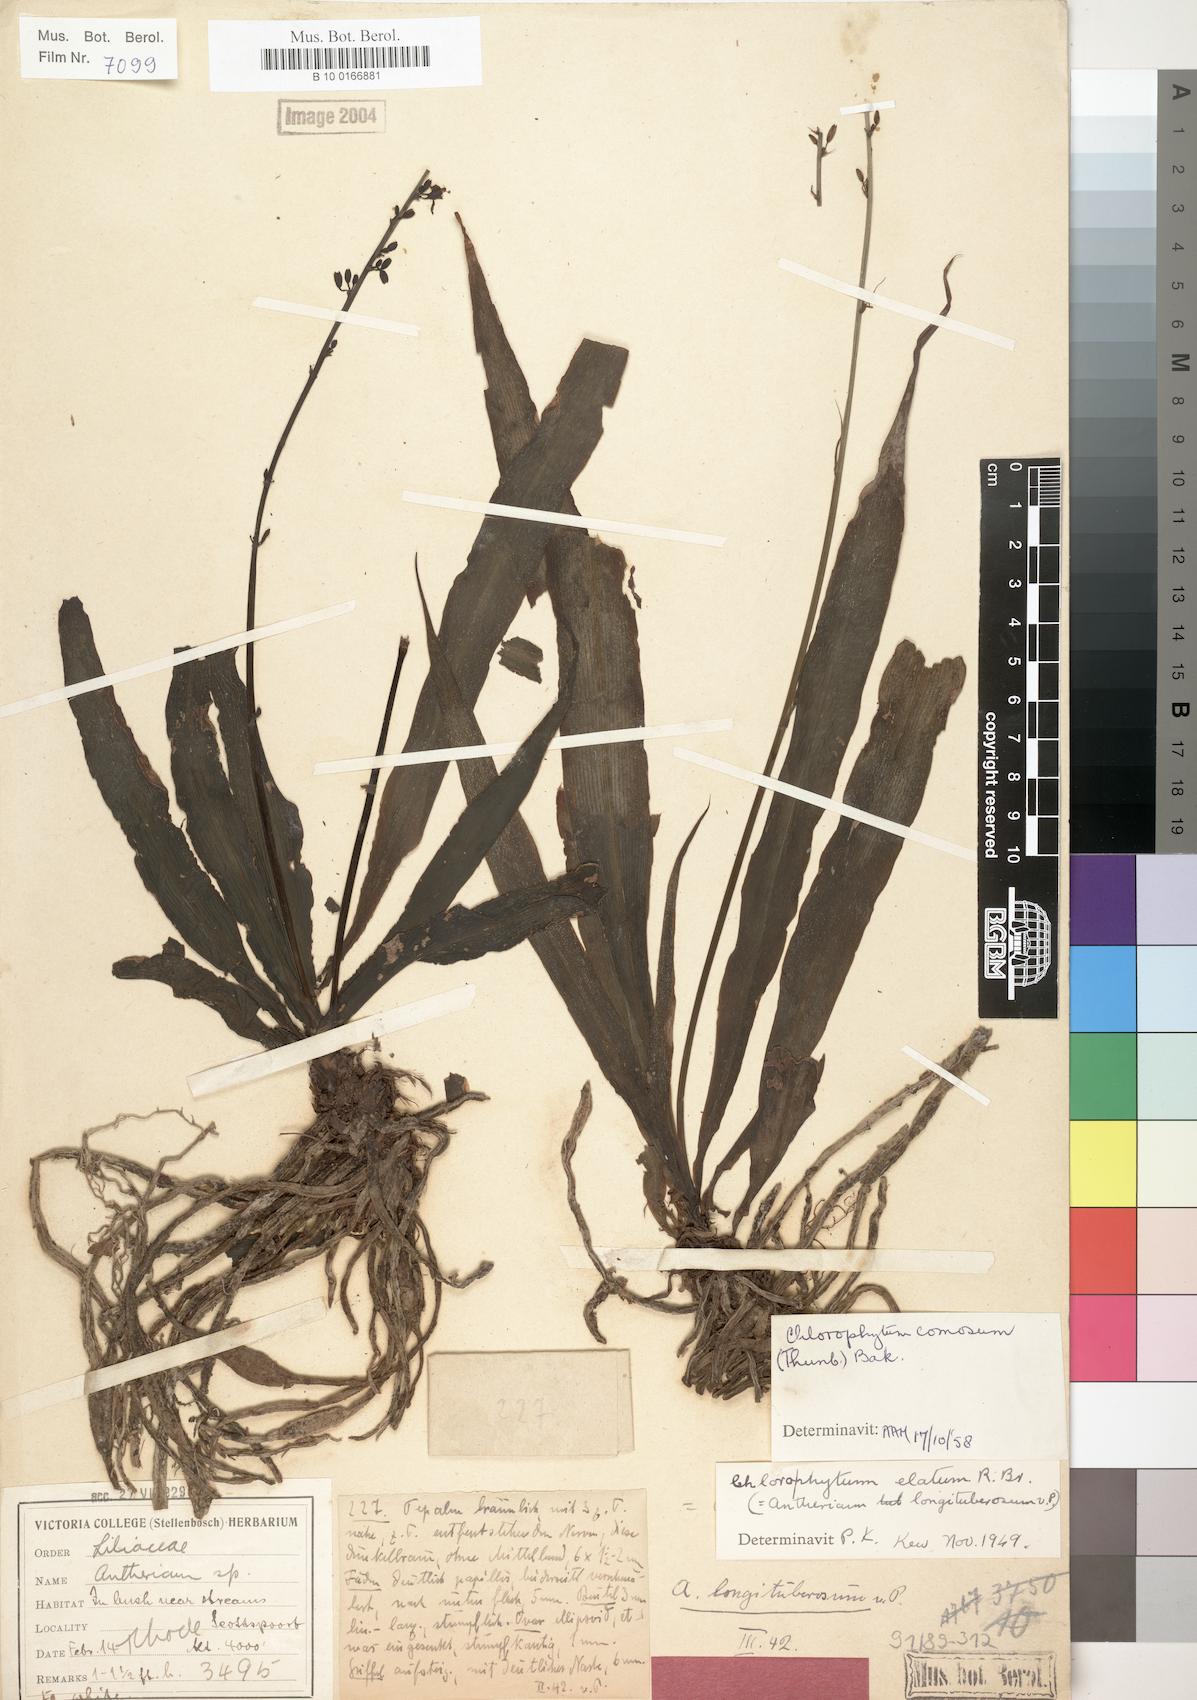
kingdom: Plantae
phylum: Tracheophyta
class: Liliopsida
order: Asparagales
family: Asparagaceae
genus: Chlorophytum
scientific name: Chlorophytum comosum
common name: Spider plant
